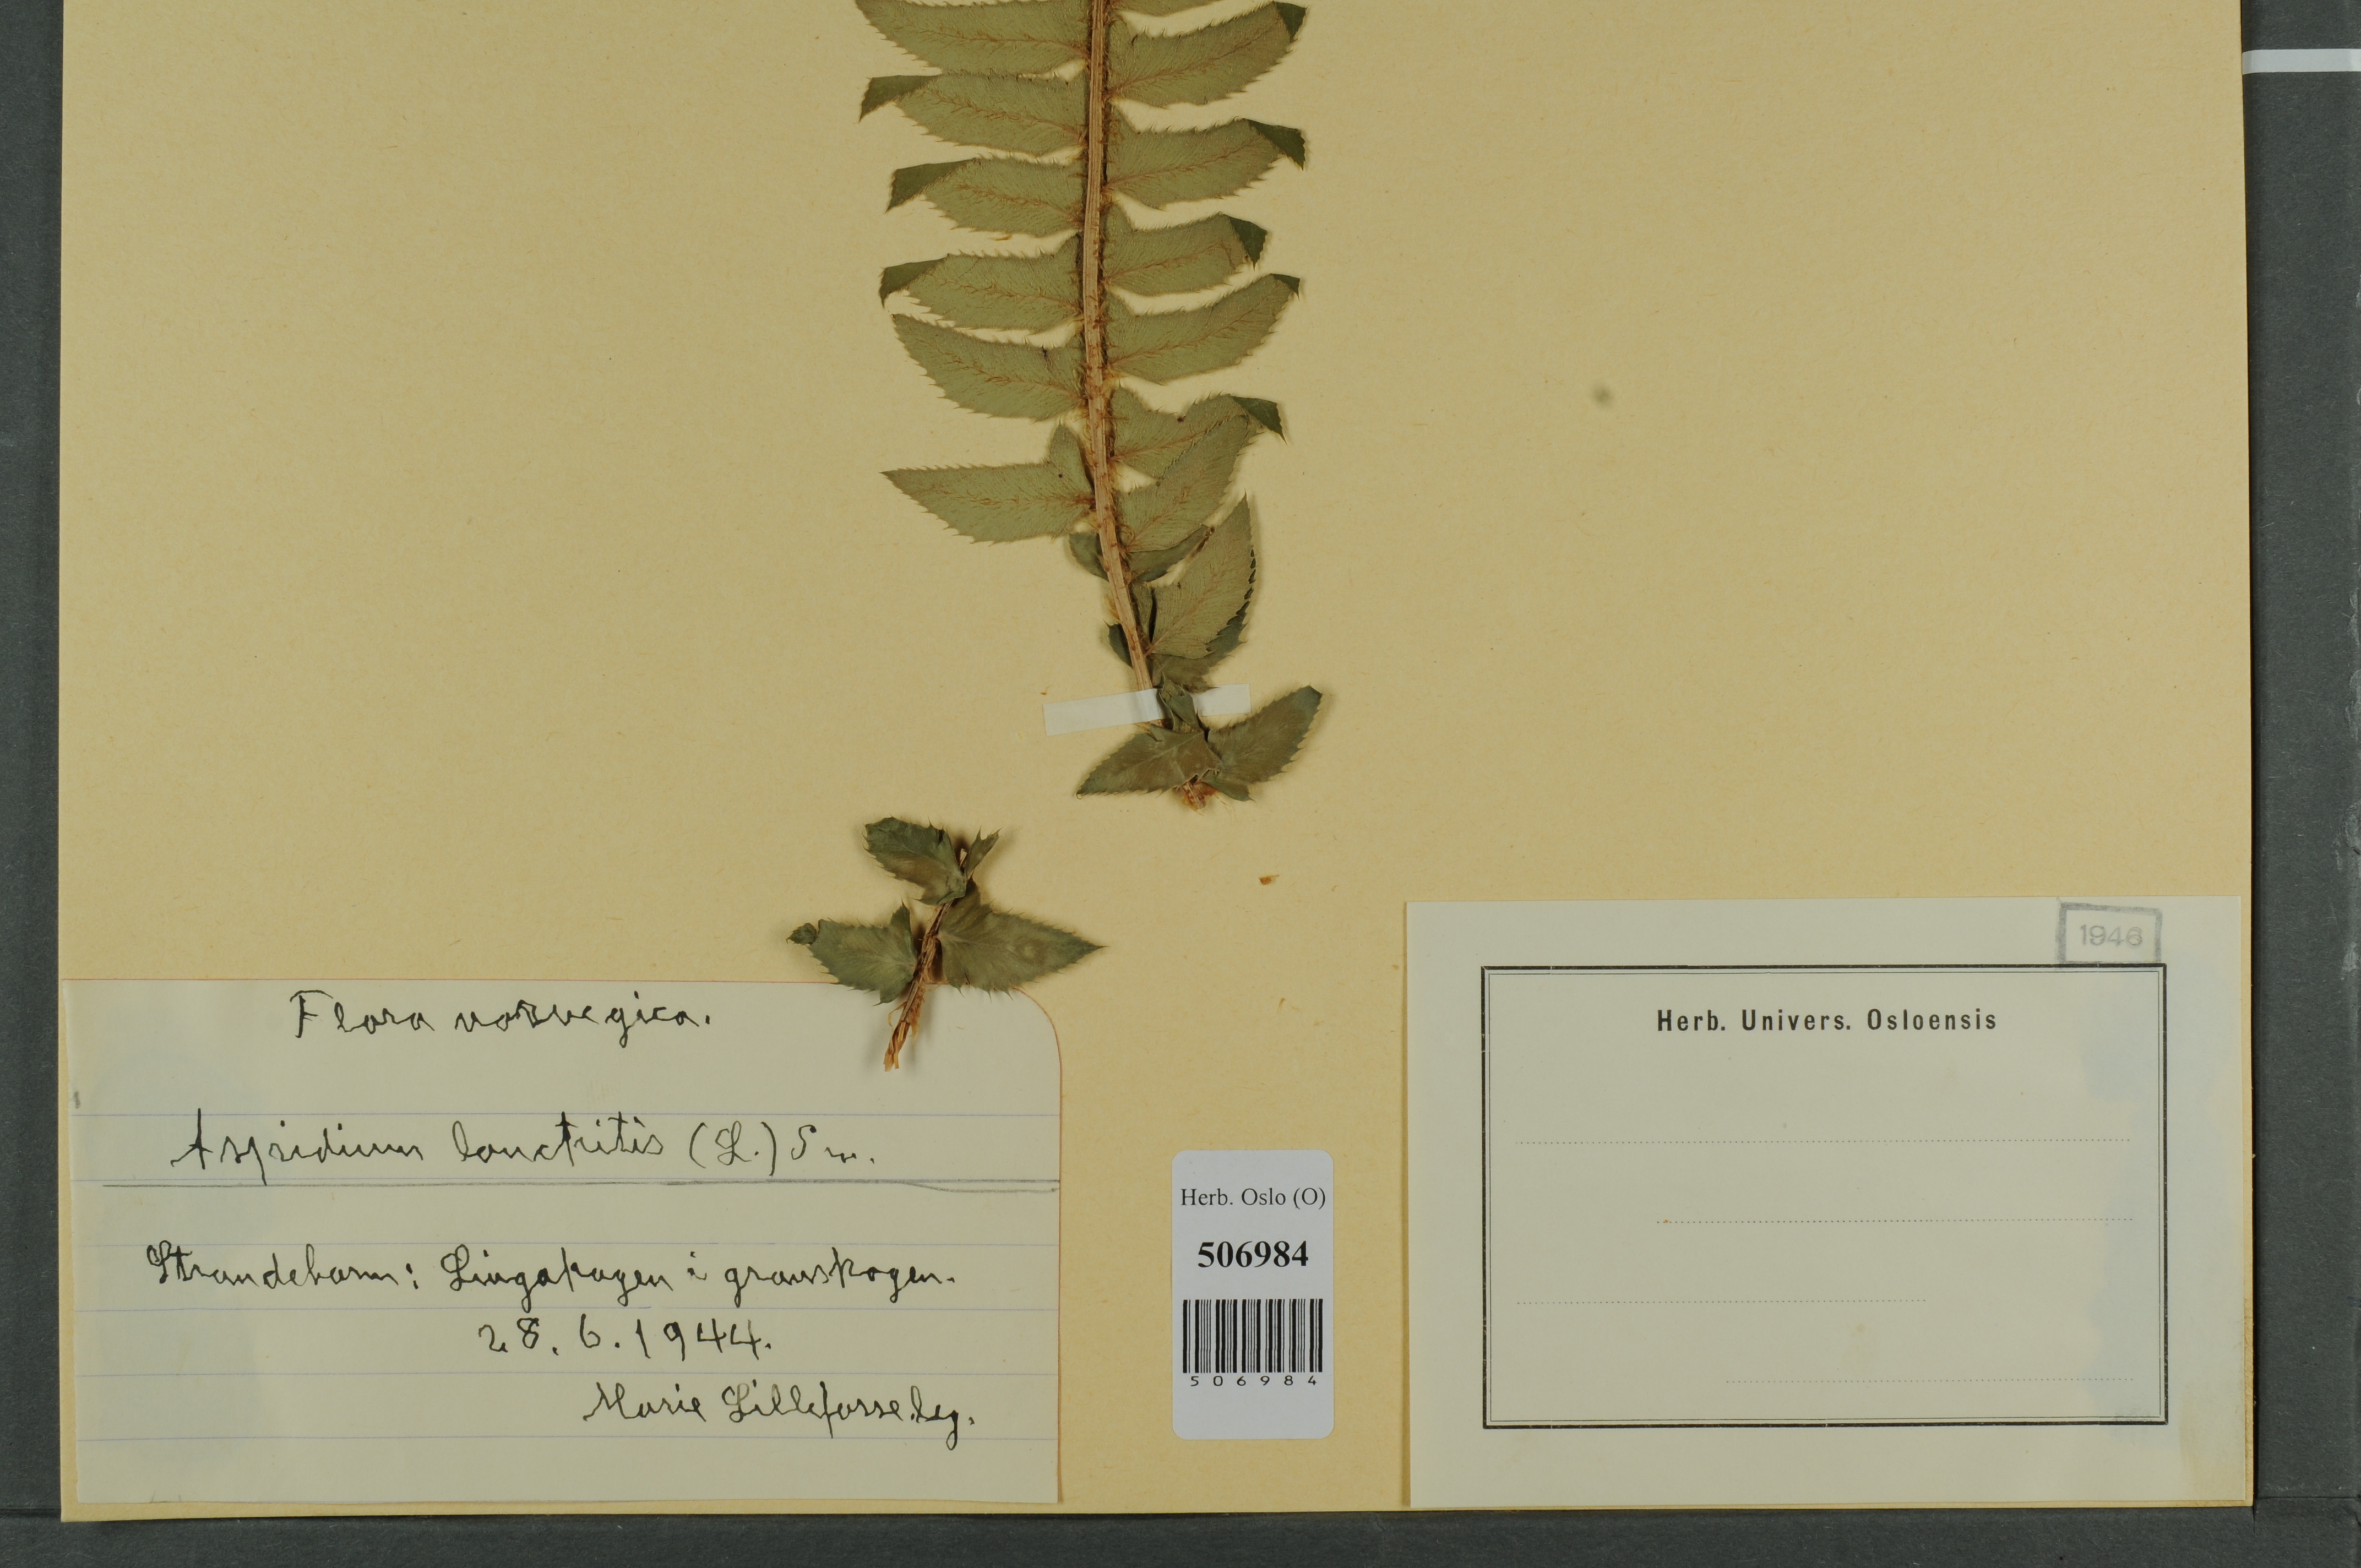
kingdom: Plantae
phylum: Tracheophyta
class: Polypodiopsida
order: Polypodiales
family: Dryopteridaceae
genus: Polystichum
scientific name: Polystichum lonchitis
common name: Holly fern
